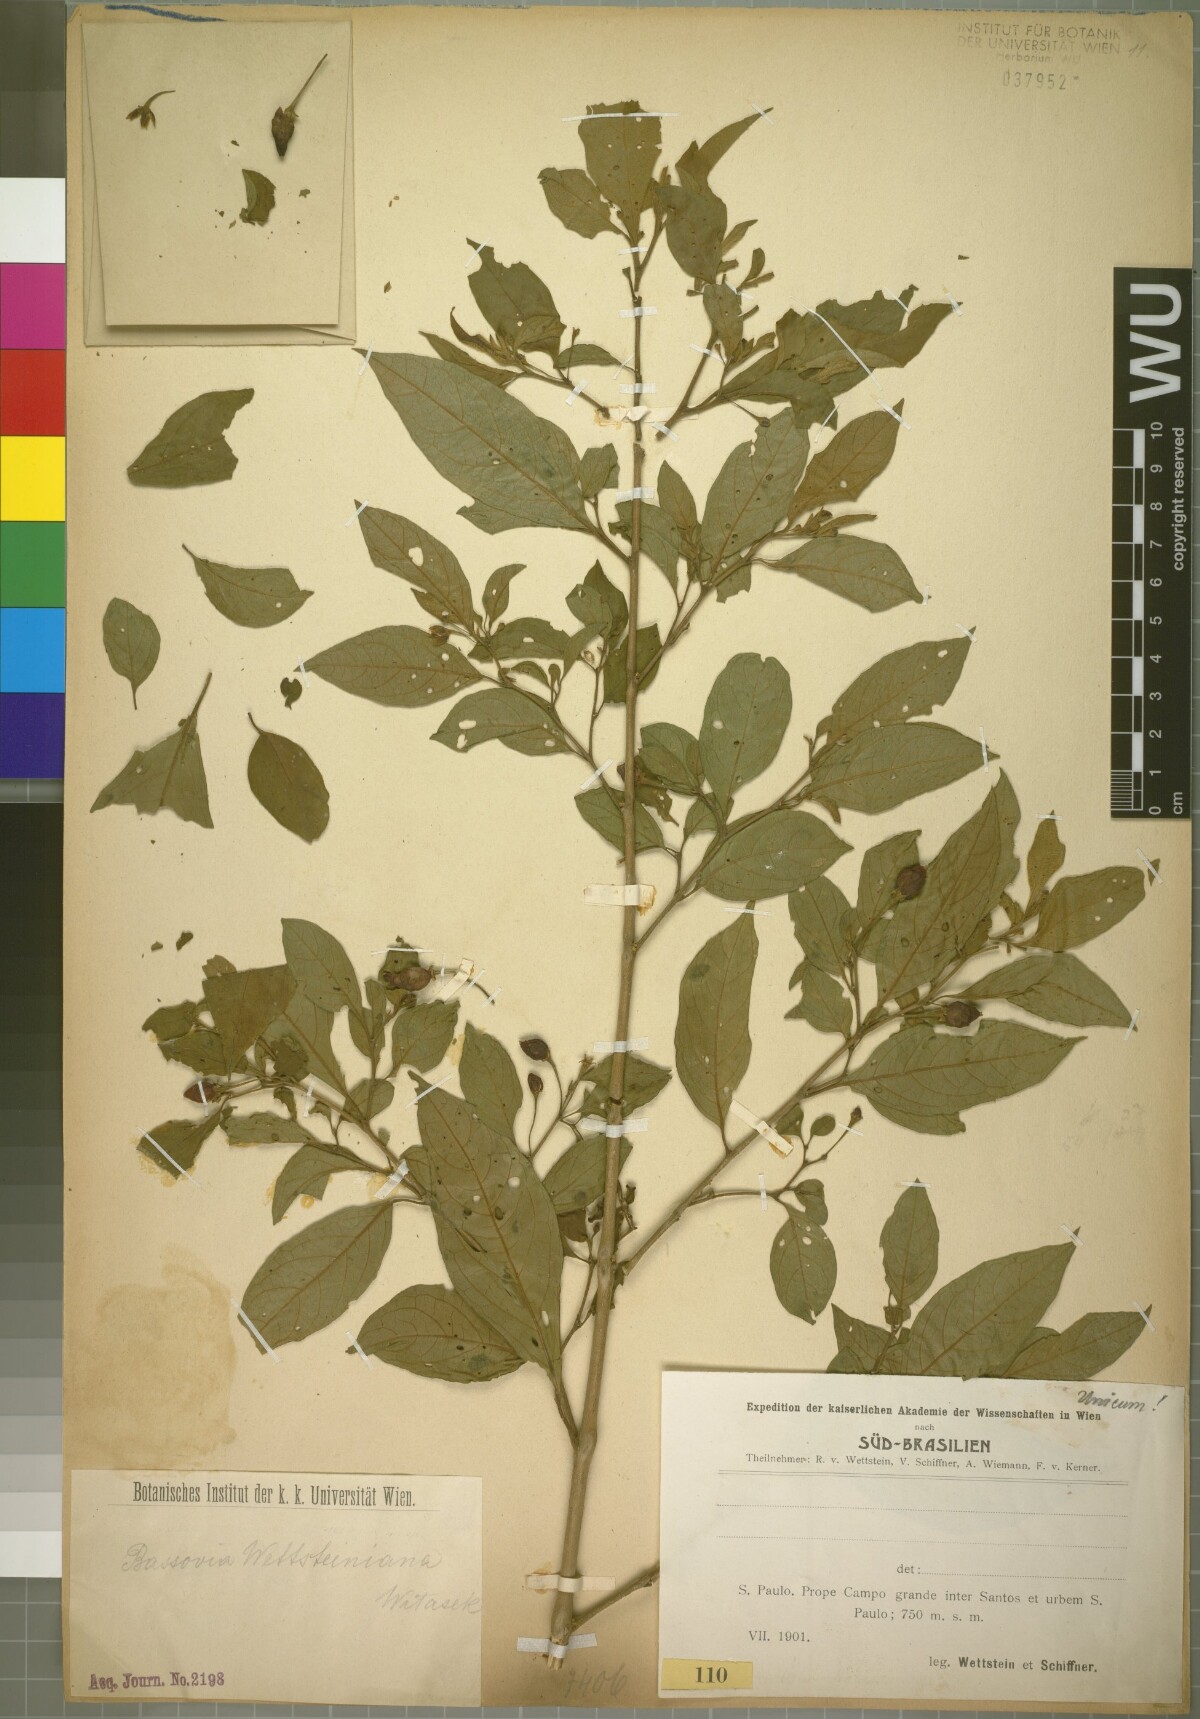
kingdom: Plantae
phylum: Tracheophyta
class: Magnoliopsida
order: Solanales
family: Solanaceae
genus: Athenaea
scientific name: Athenaea wettsteiniana
